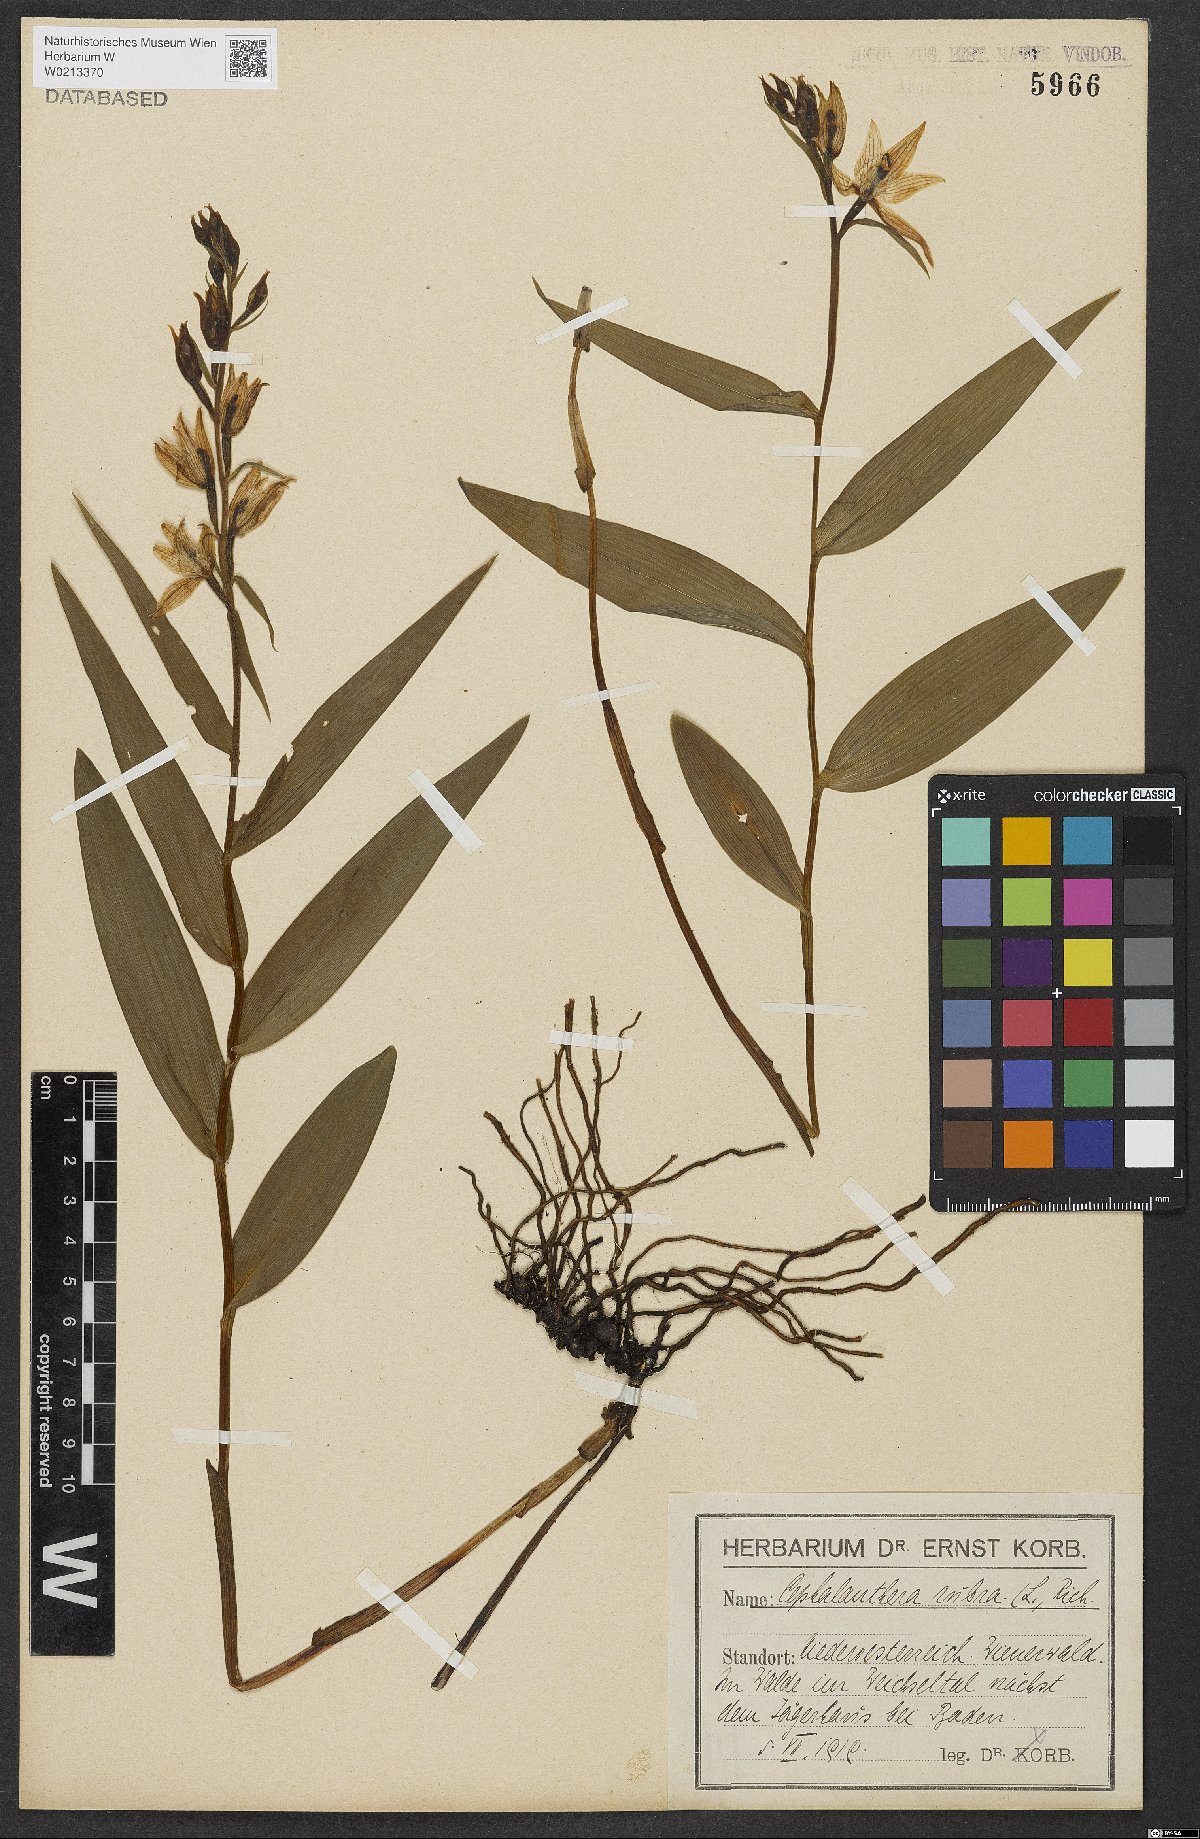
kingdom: Plantae
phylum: Tracheophyta
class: Liliopsida
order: Asparagales
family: Orchidaceae
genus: Cephalanthera
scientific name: Cephalanthera rubra
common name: Red helleborine
